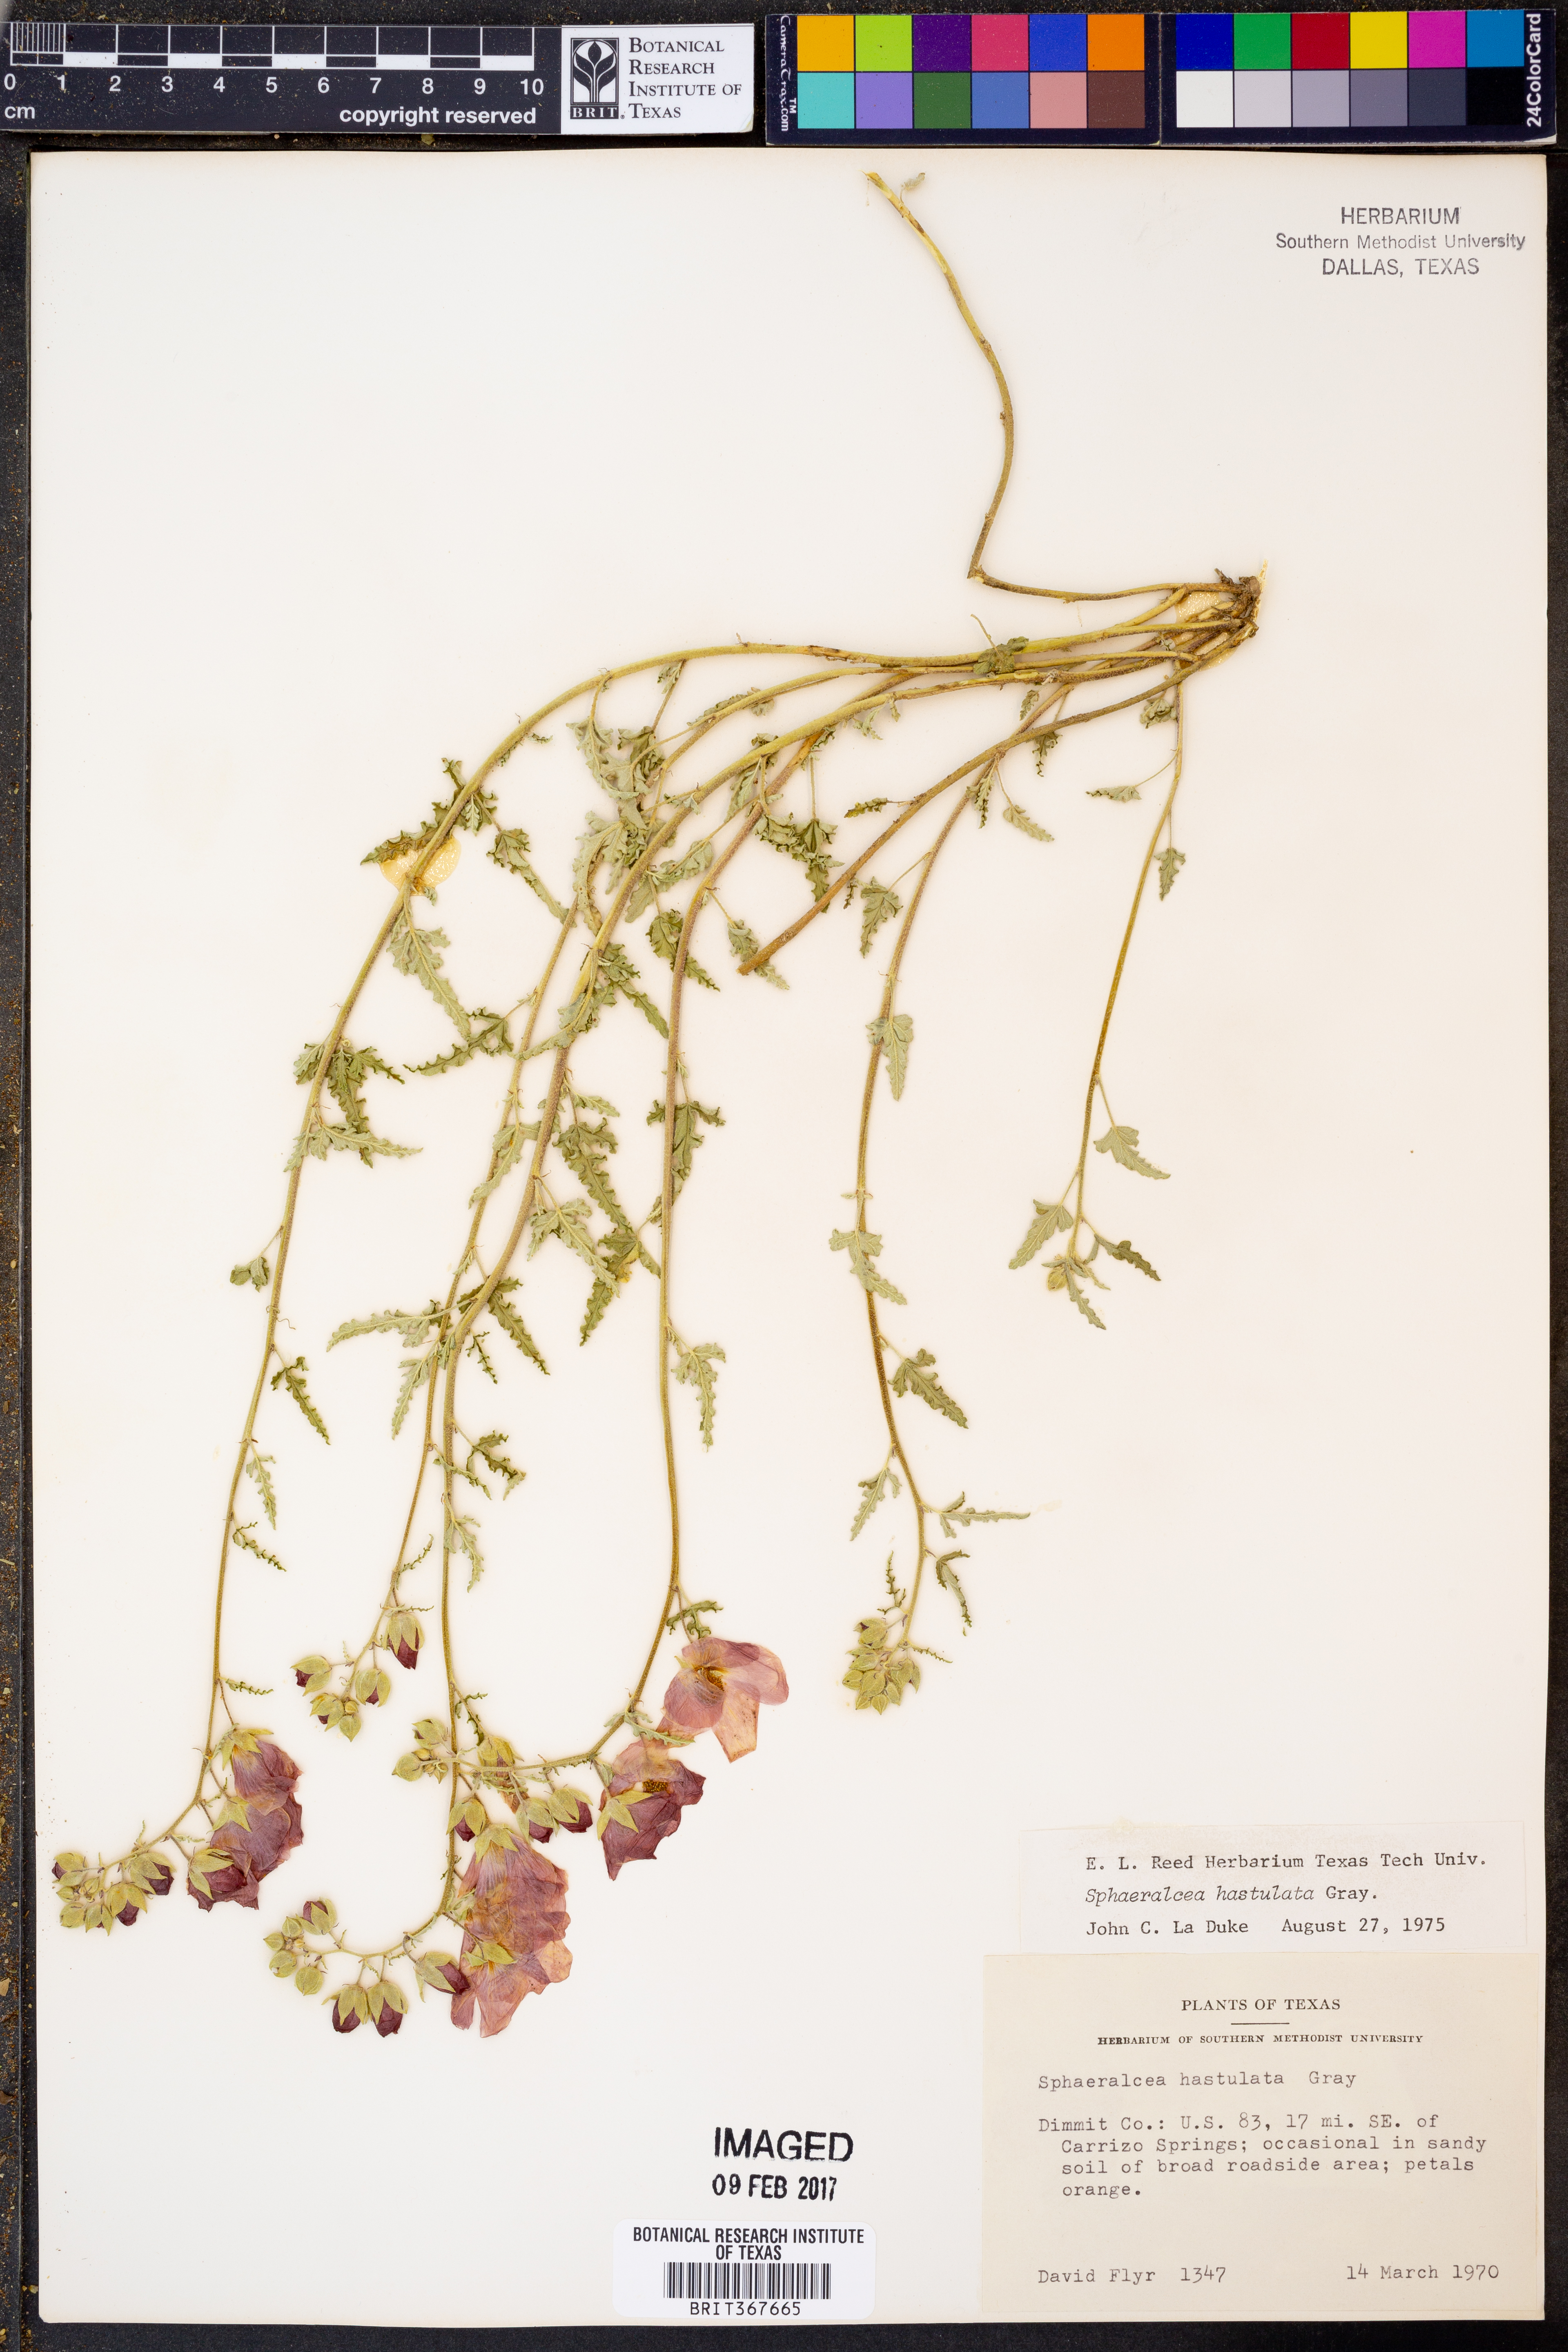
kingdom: Plantae
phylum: Tracheophyta
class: Magnoliopsida
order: Malvales
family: Malvaceae
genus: Sphaeralcea
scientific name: Sphaeralcea hastulata
